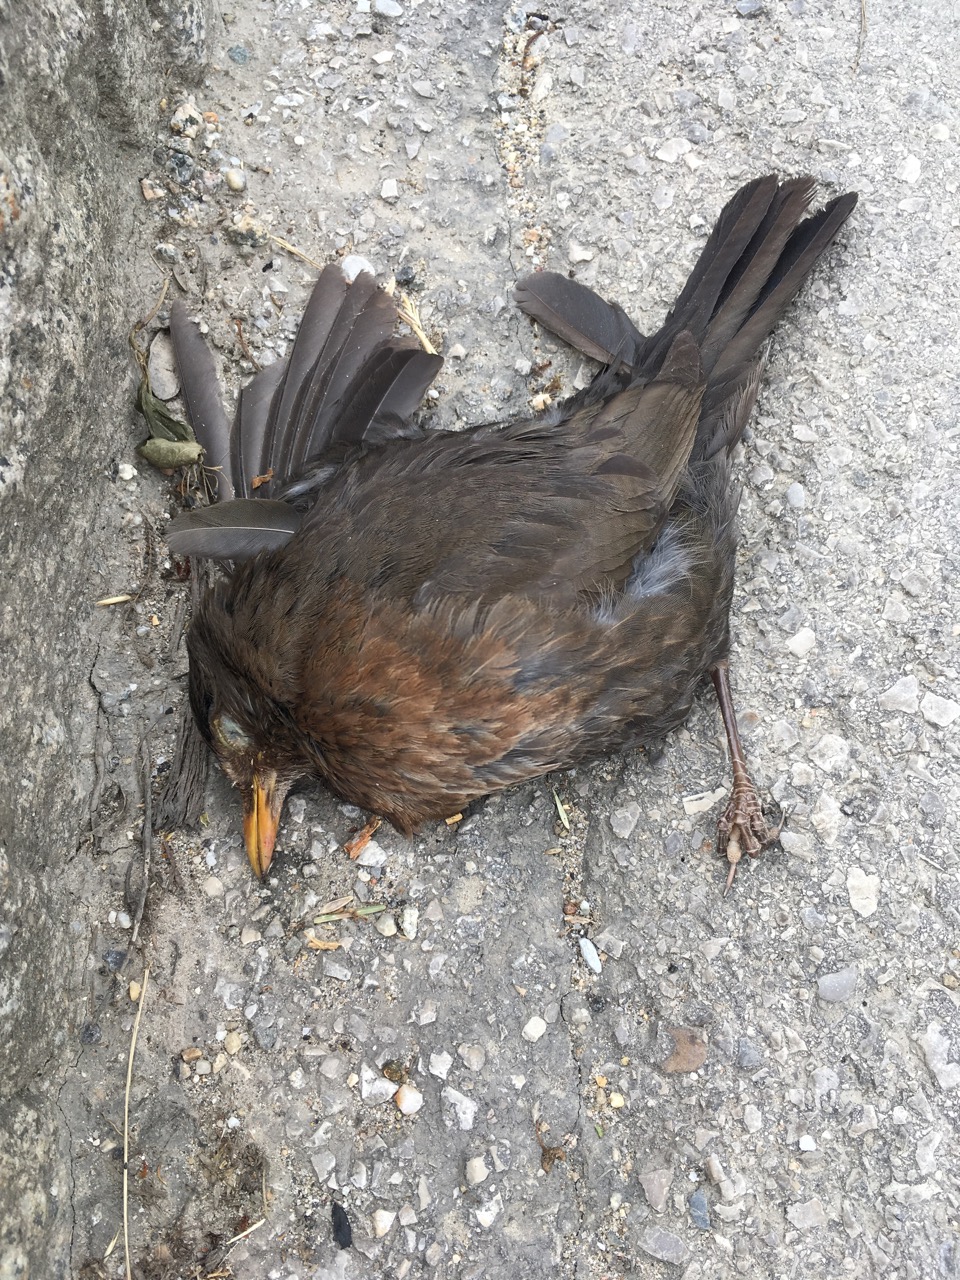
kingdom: Animalia
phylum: Chordata
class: Aves
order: Passeriformes
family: Turdidae
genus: Turdus
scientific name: Turdus merula
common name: Common blackbird
